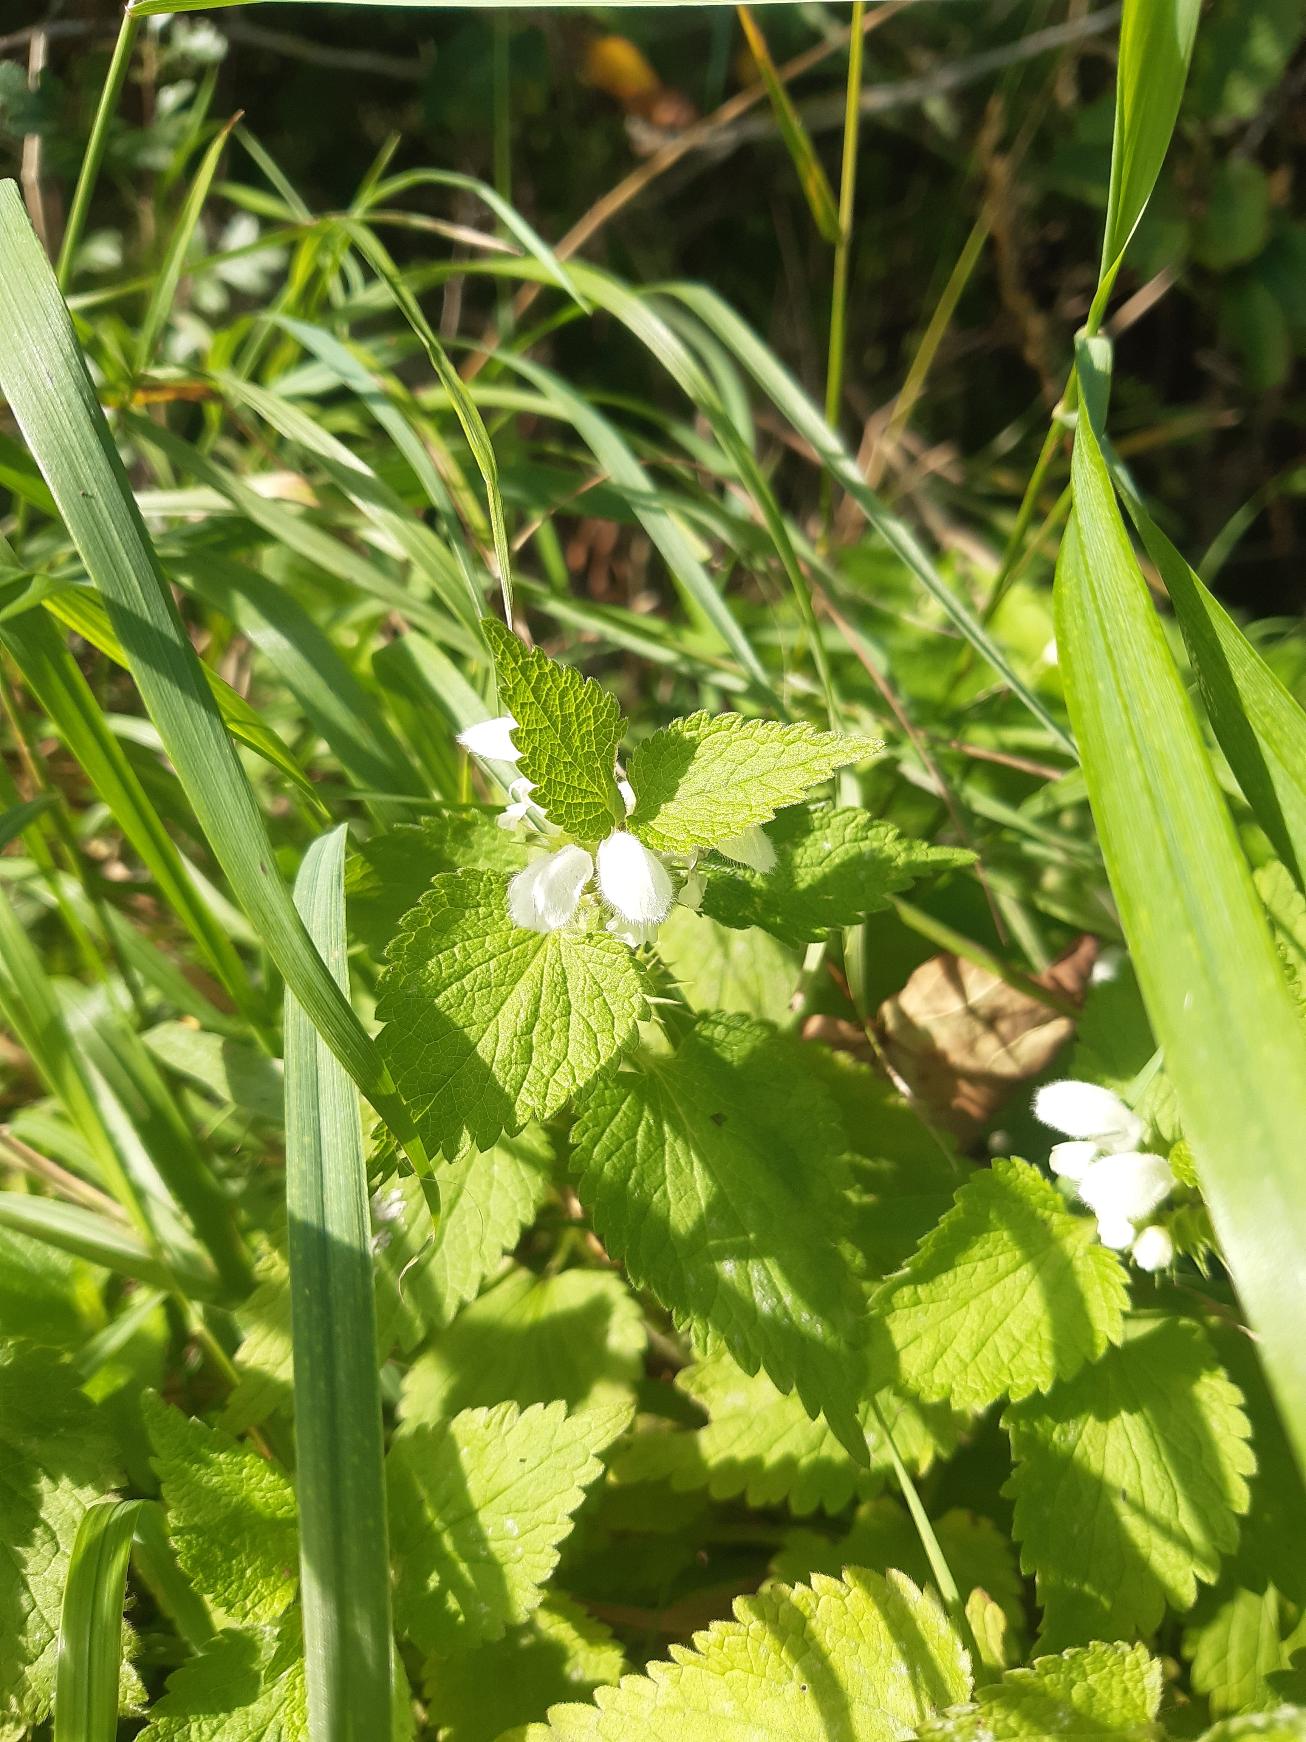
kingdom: Plantae
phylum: Tracheophyta
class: Magnoliopsida
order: Lamiales
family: Lamiaceae
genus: Lamium
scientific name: Lamium album
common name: Døvnælde
